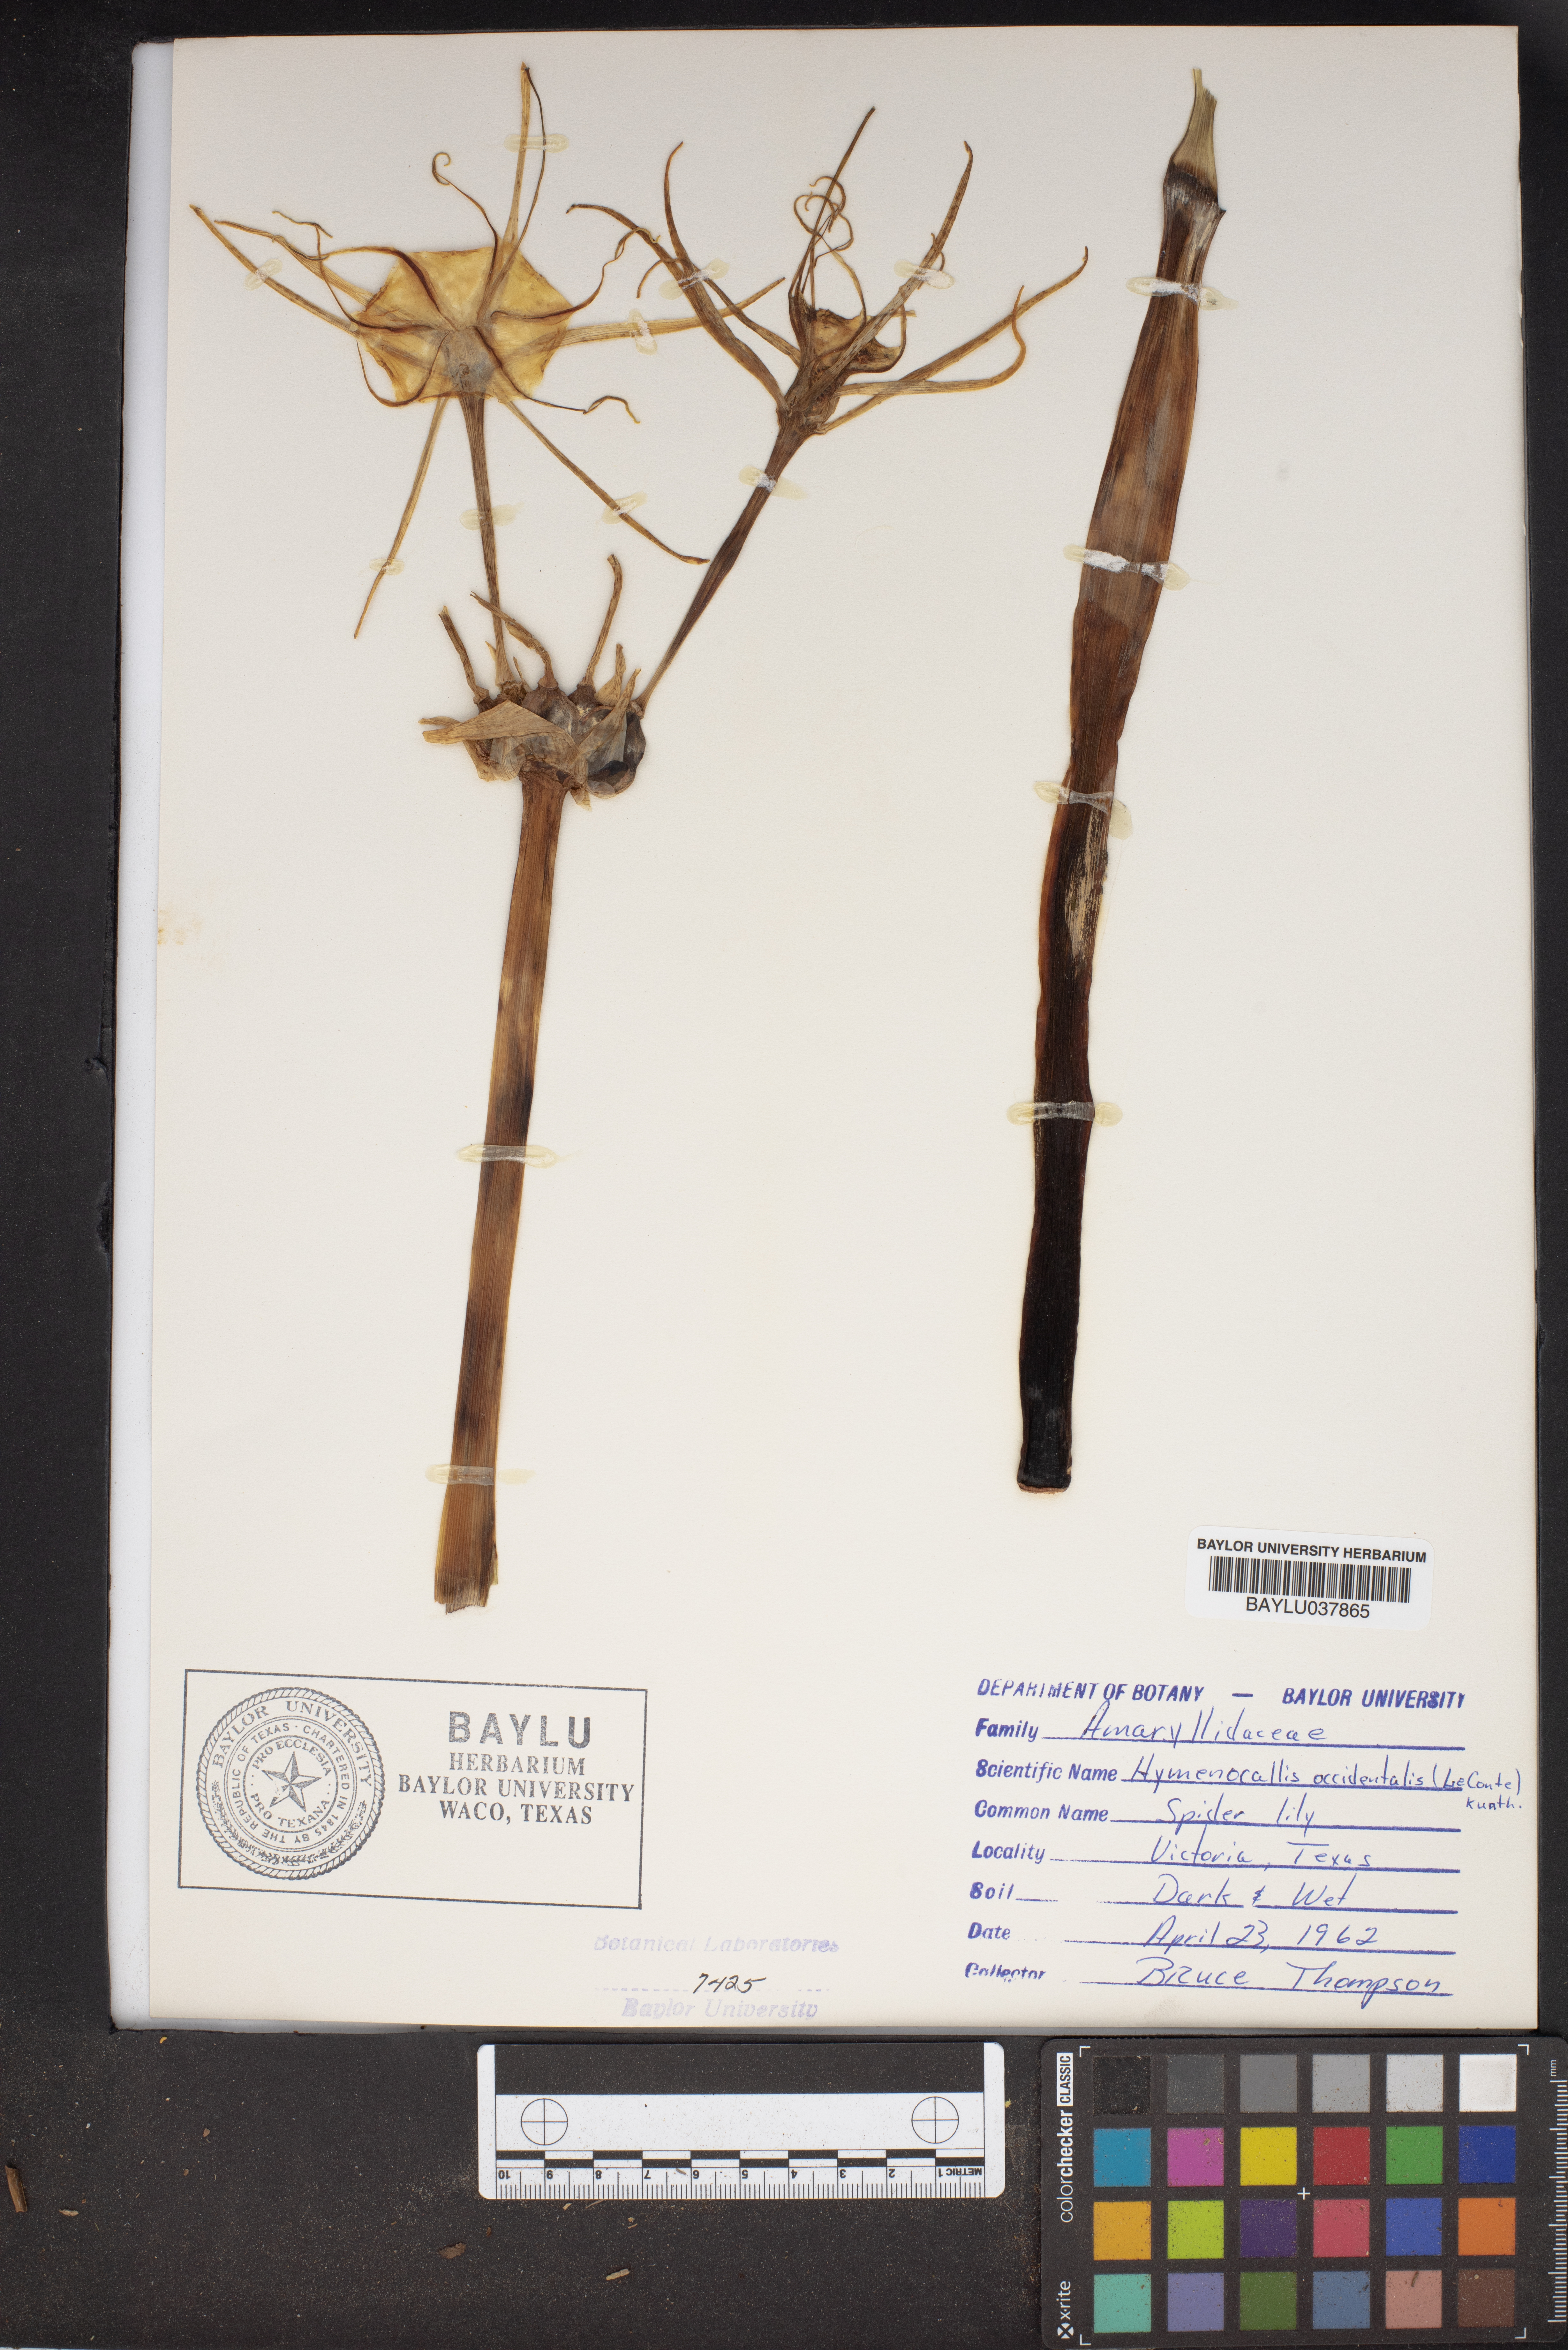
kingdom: Plantae
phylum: Tracheophyta
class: Liliopsida
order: Asparagales
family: Amaryllidaceae
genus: Hymenocallis
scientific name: Hymenocallis occidentalis
